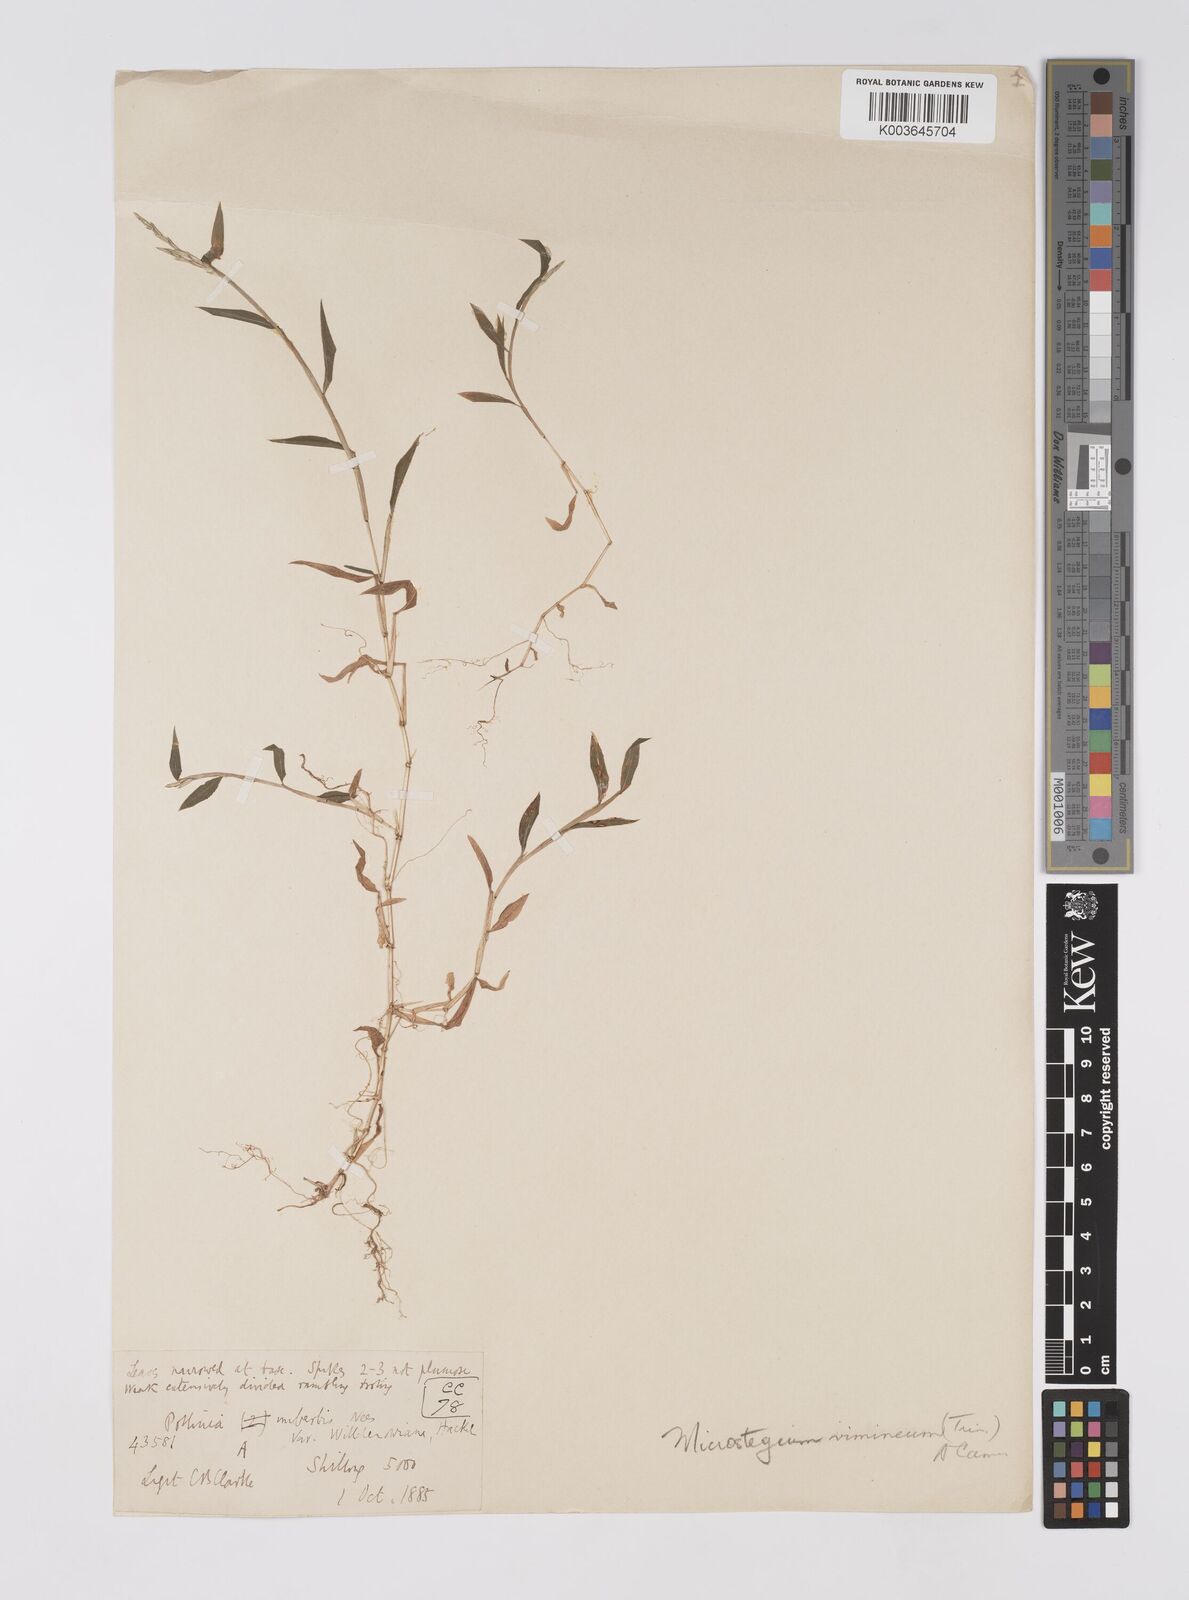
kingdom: Plantae
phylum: Tracheophyta
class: Liliopsida
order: Poales
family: Poaceae
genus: Microstegium
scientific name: Microstegium vimineum
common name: Japanese stiltgrass
